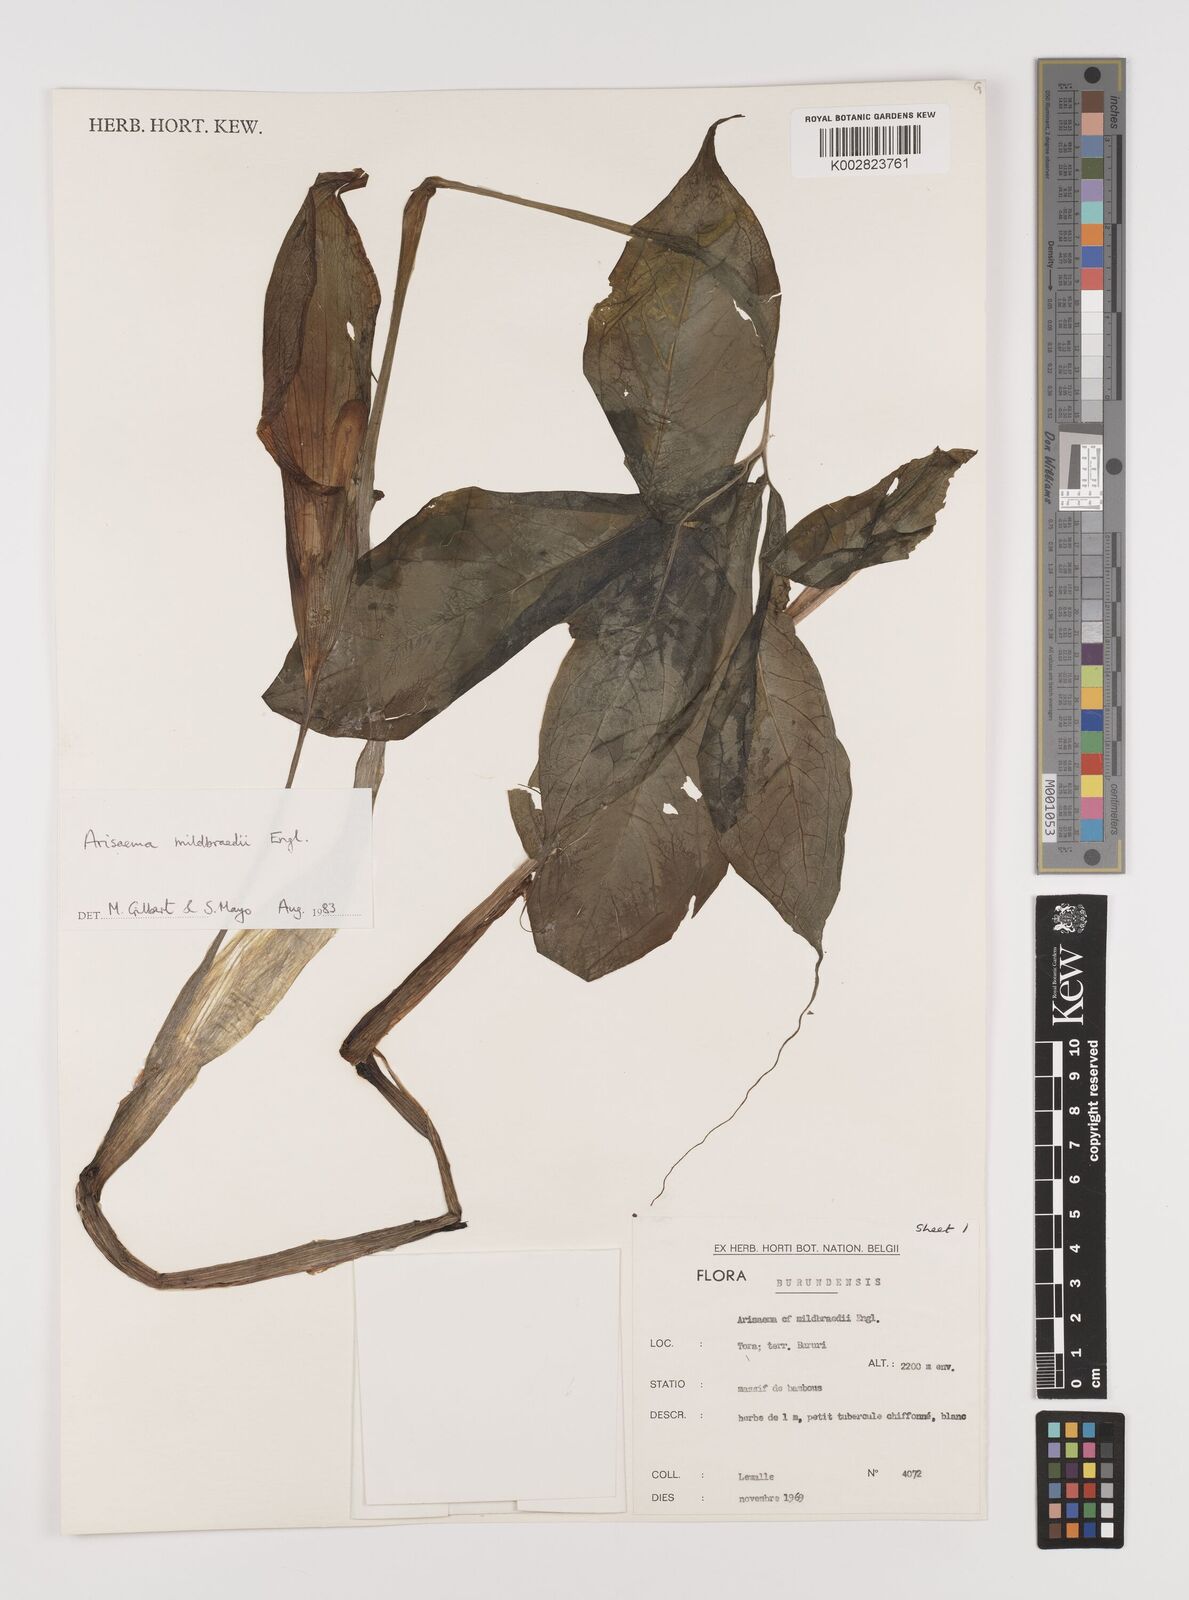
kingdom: Plantae
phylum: Tracheophyta
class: Liliopsida
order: Alismatales
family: Araceae
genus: Arisaema
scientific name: Arisaema mildbraedii
